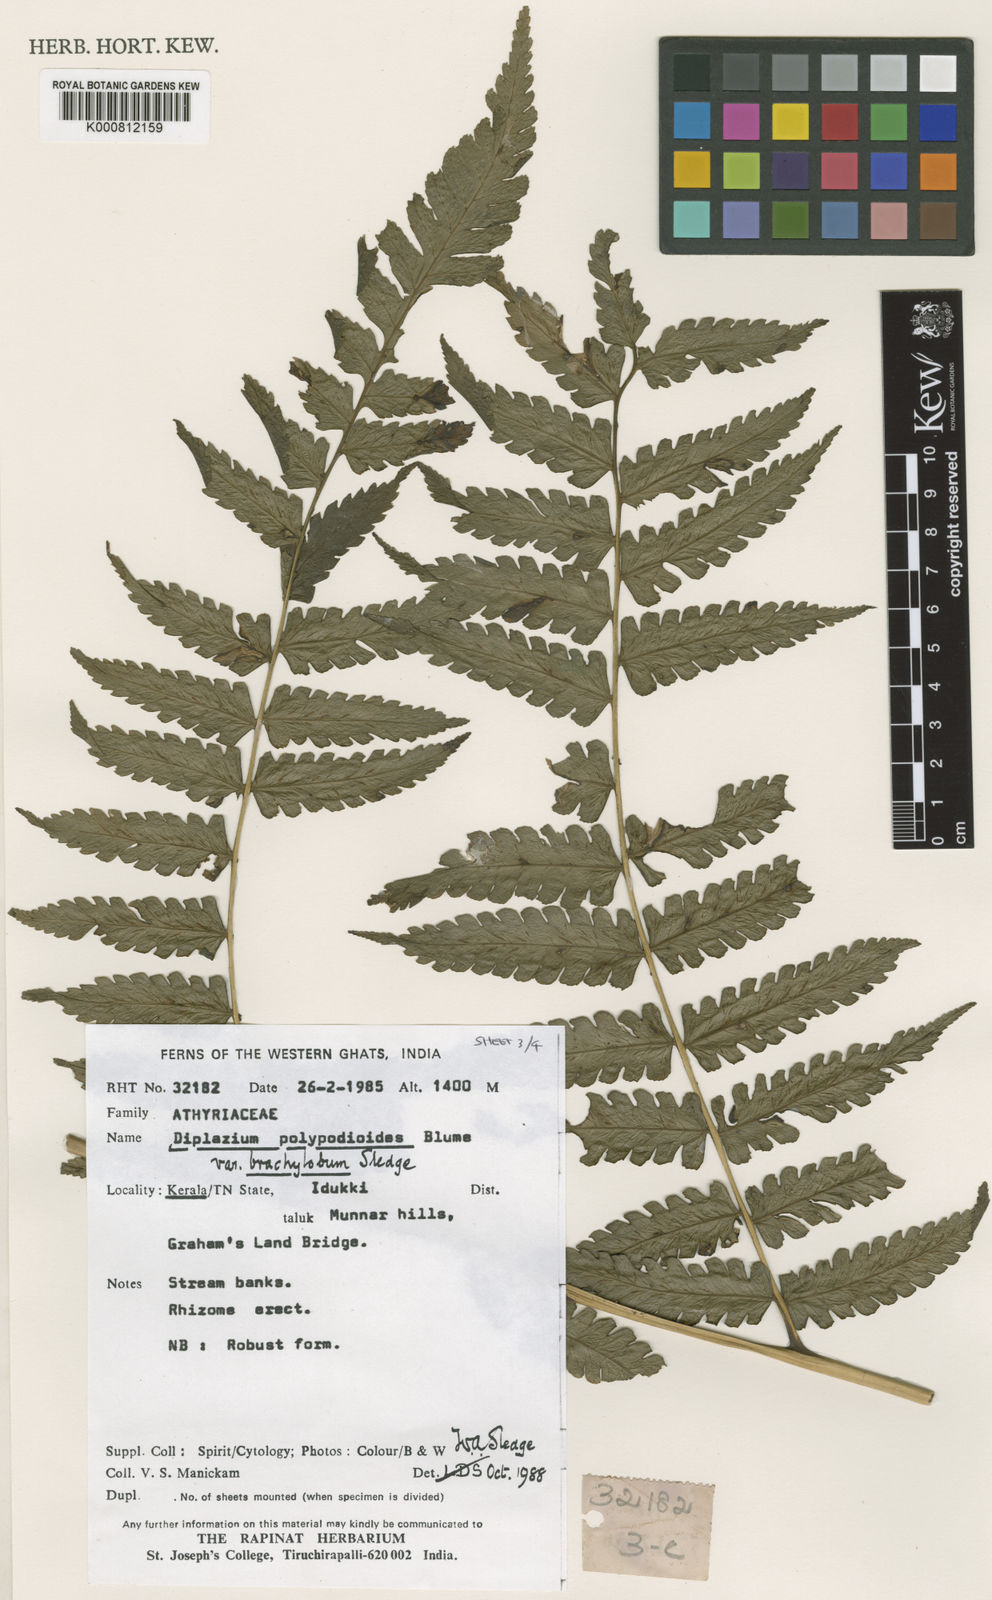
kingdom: Plantae
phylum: Tracheophyta
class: Polypodiopsida
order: Polypodiales
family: Athyriaceae
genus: Diplazium
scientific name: Diplazium polypodioides
